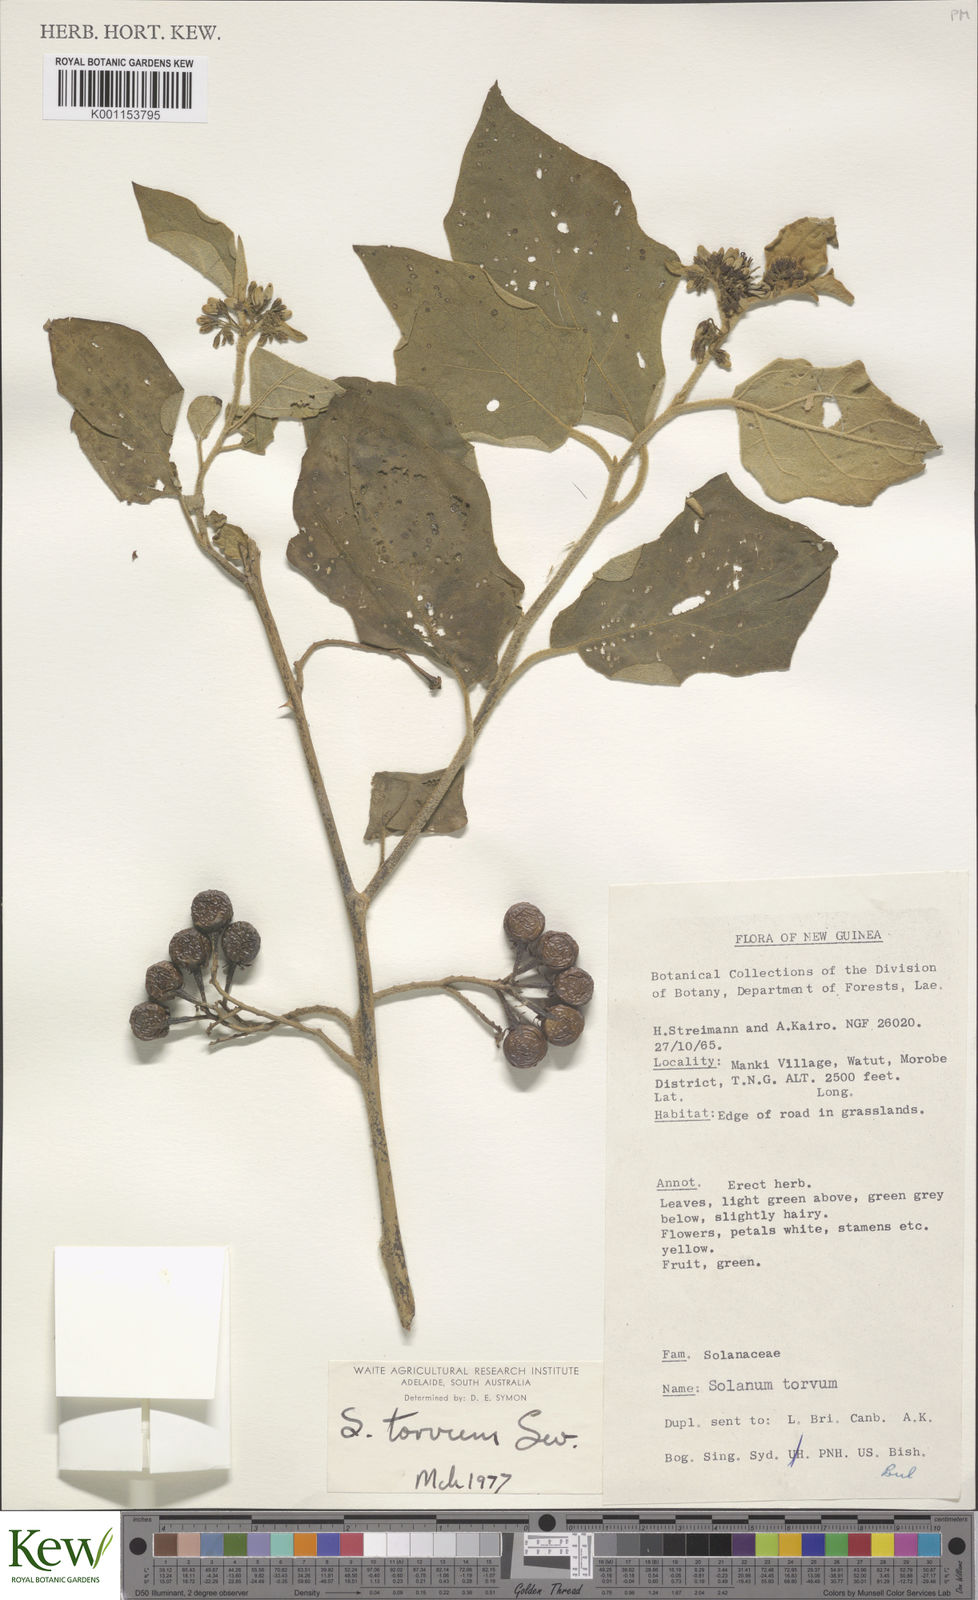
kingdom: Plantae
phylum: Tracheophyta
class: Magnoliopsida
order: Solanales
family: Solanaceae
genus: Solanum
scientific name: Solanum torvum
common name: Turkey berry
